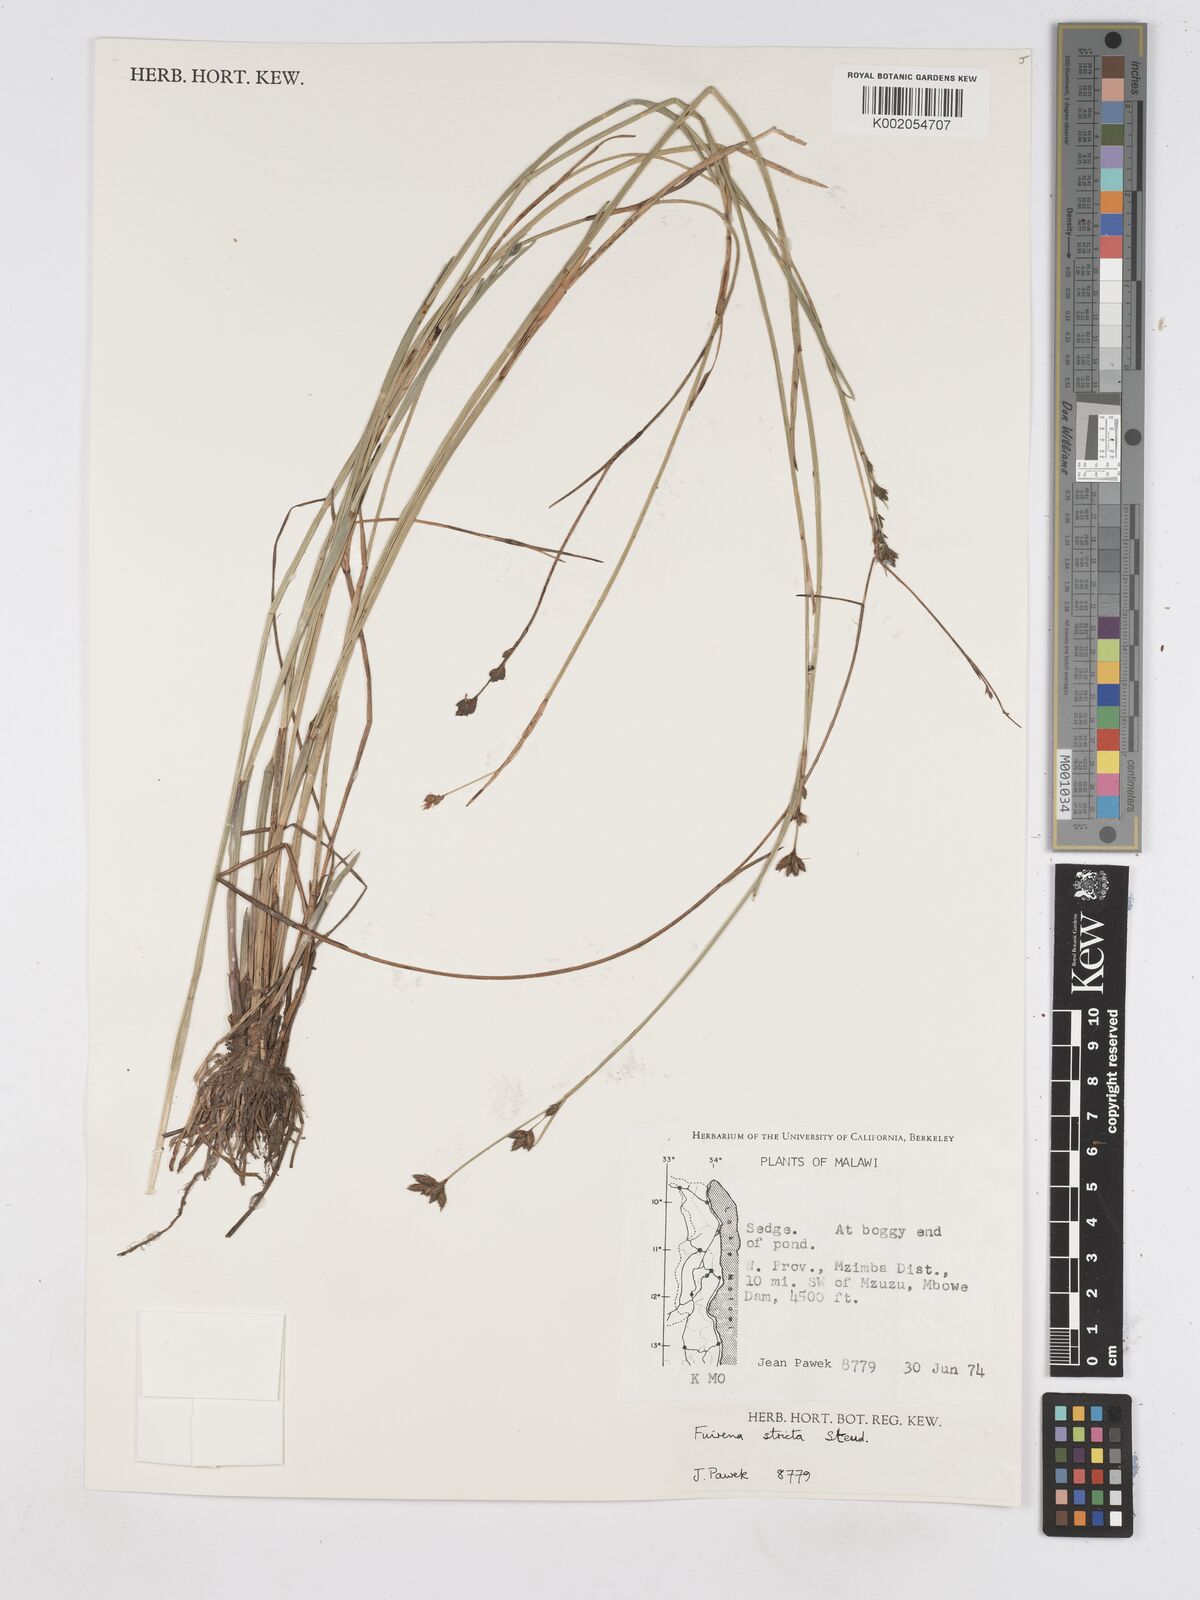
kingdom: Plantae
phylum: Tracheophyta
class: Liliopsida
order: Poales
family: Cyperaceae
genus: Fuirena
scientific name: Fuirena stricta
